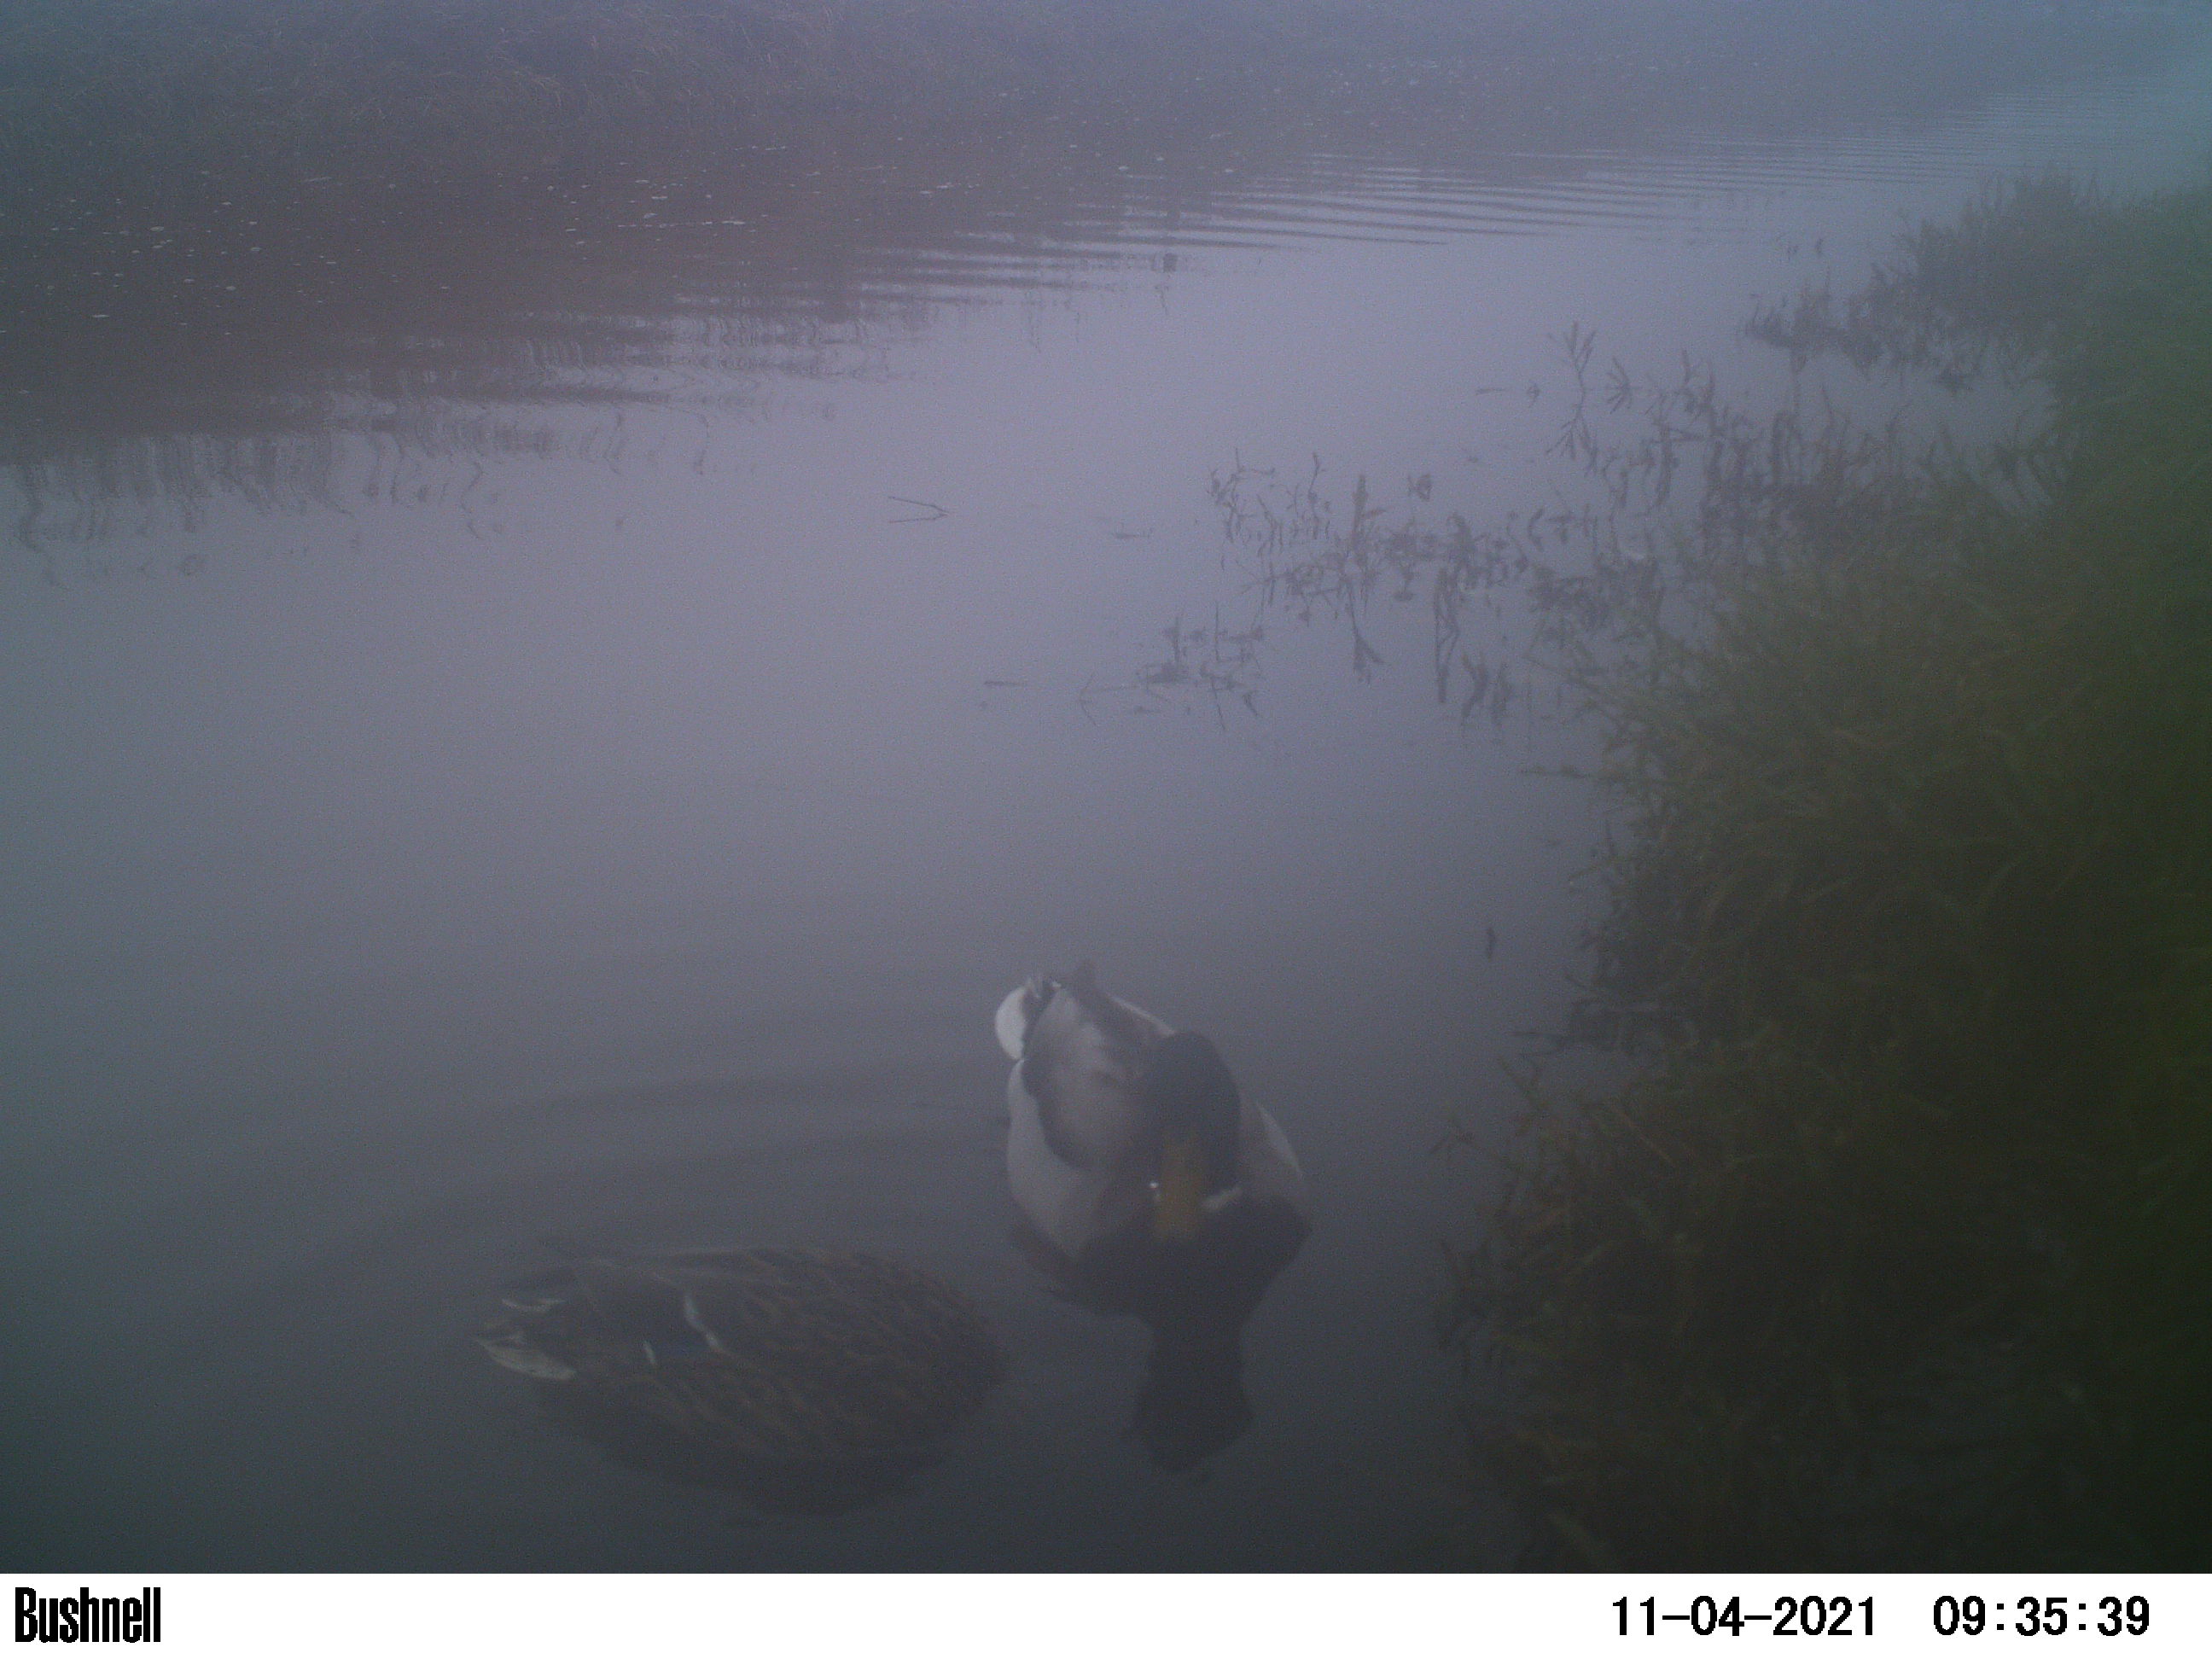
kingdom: Animalia
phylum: Chordata
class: Aves
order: Anseriformes
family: Anatidae
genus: Anas
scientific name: Anas
